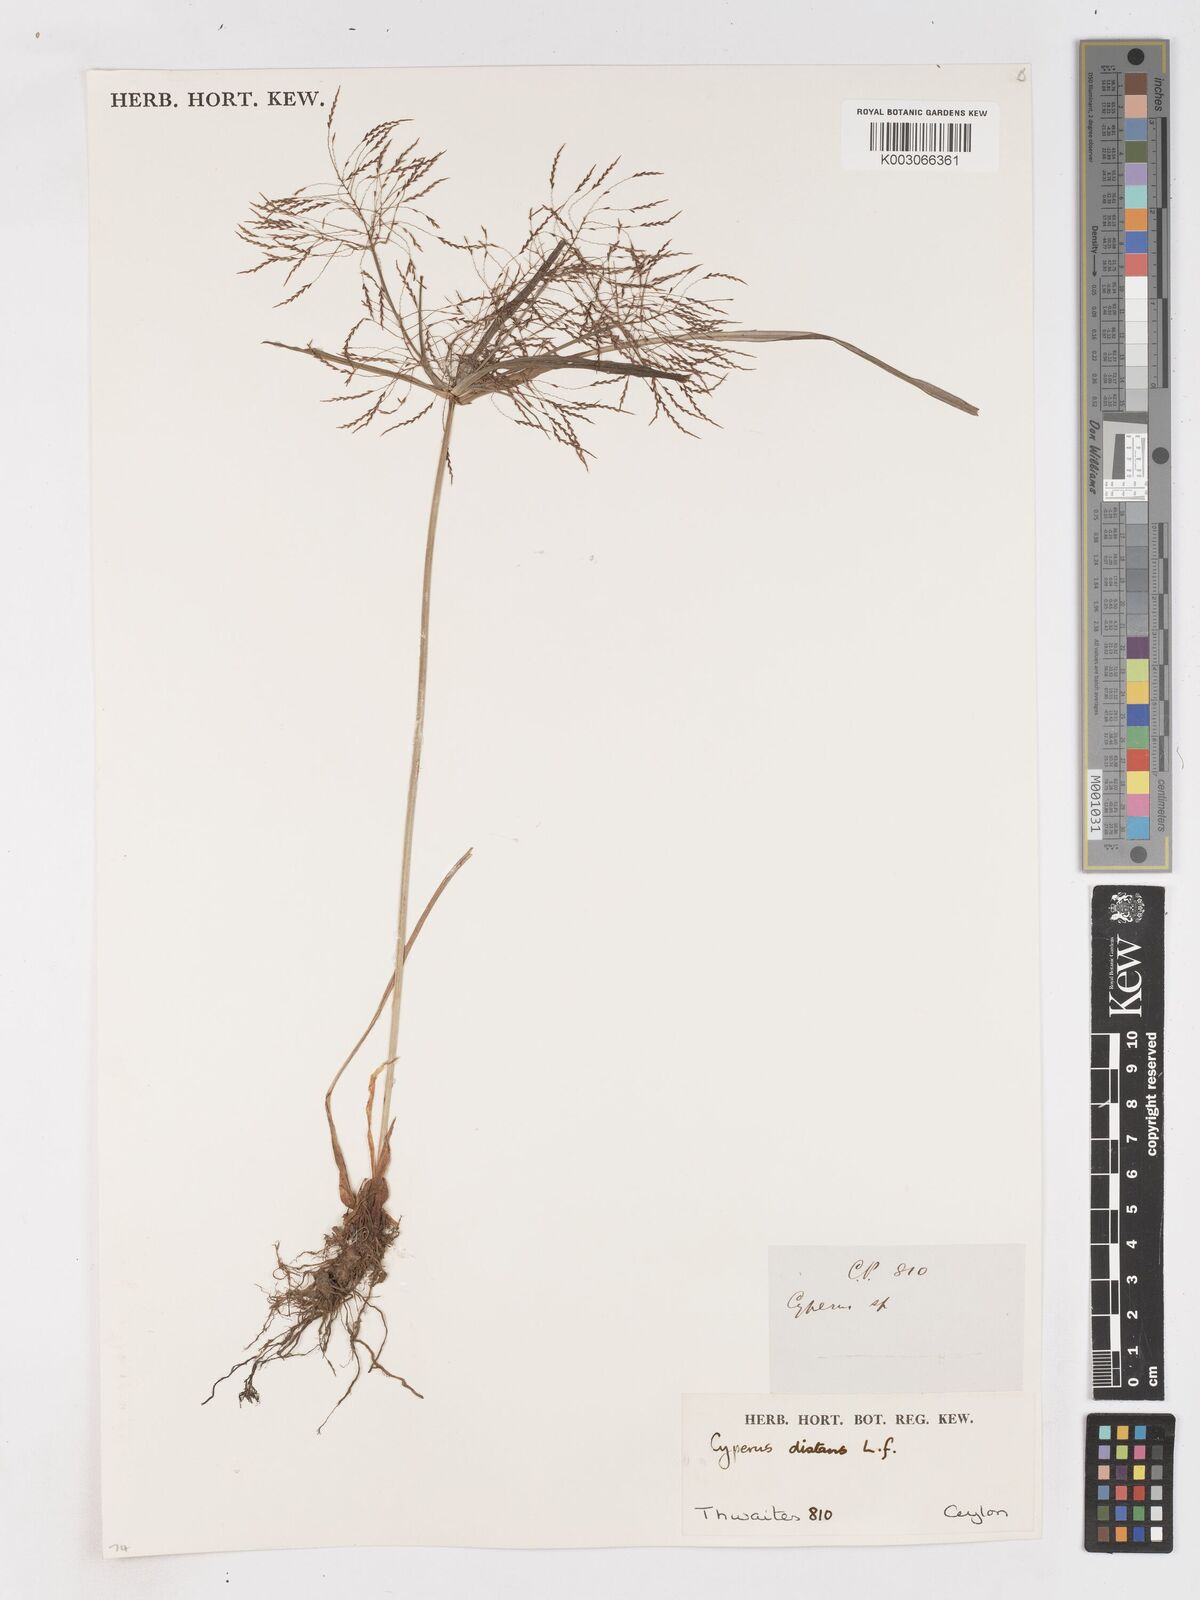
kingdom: Plantae
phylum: Tracheophyta
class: Liliopsida
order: Poales
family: Cyperaceae
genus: Cyperus
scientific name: Cyperus distans
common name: Slender cyperus
